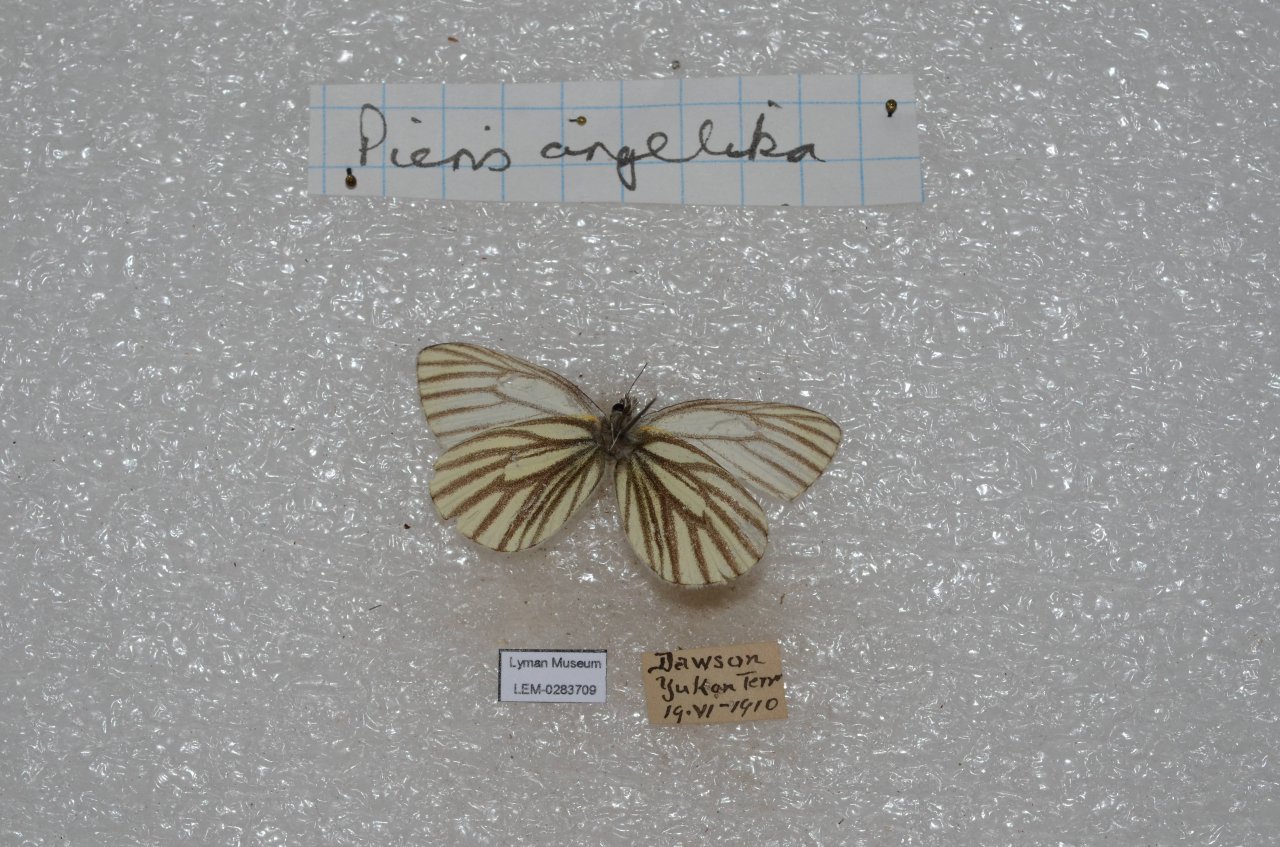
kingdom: Animalia
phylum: Arthropoda
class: Insecta
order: Lepidoptera
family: Pieridae
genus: Pieris
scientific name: Pieris angelika
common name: Arctic White
